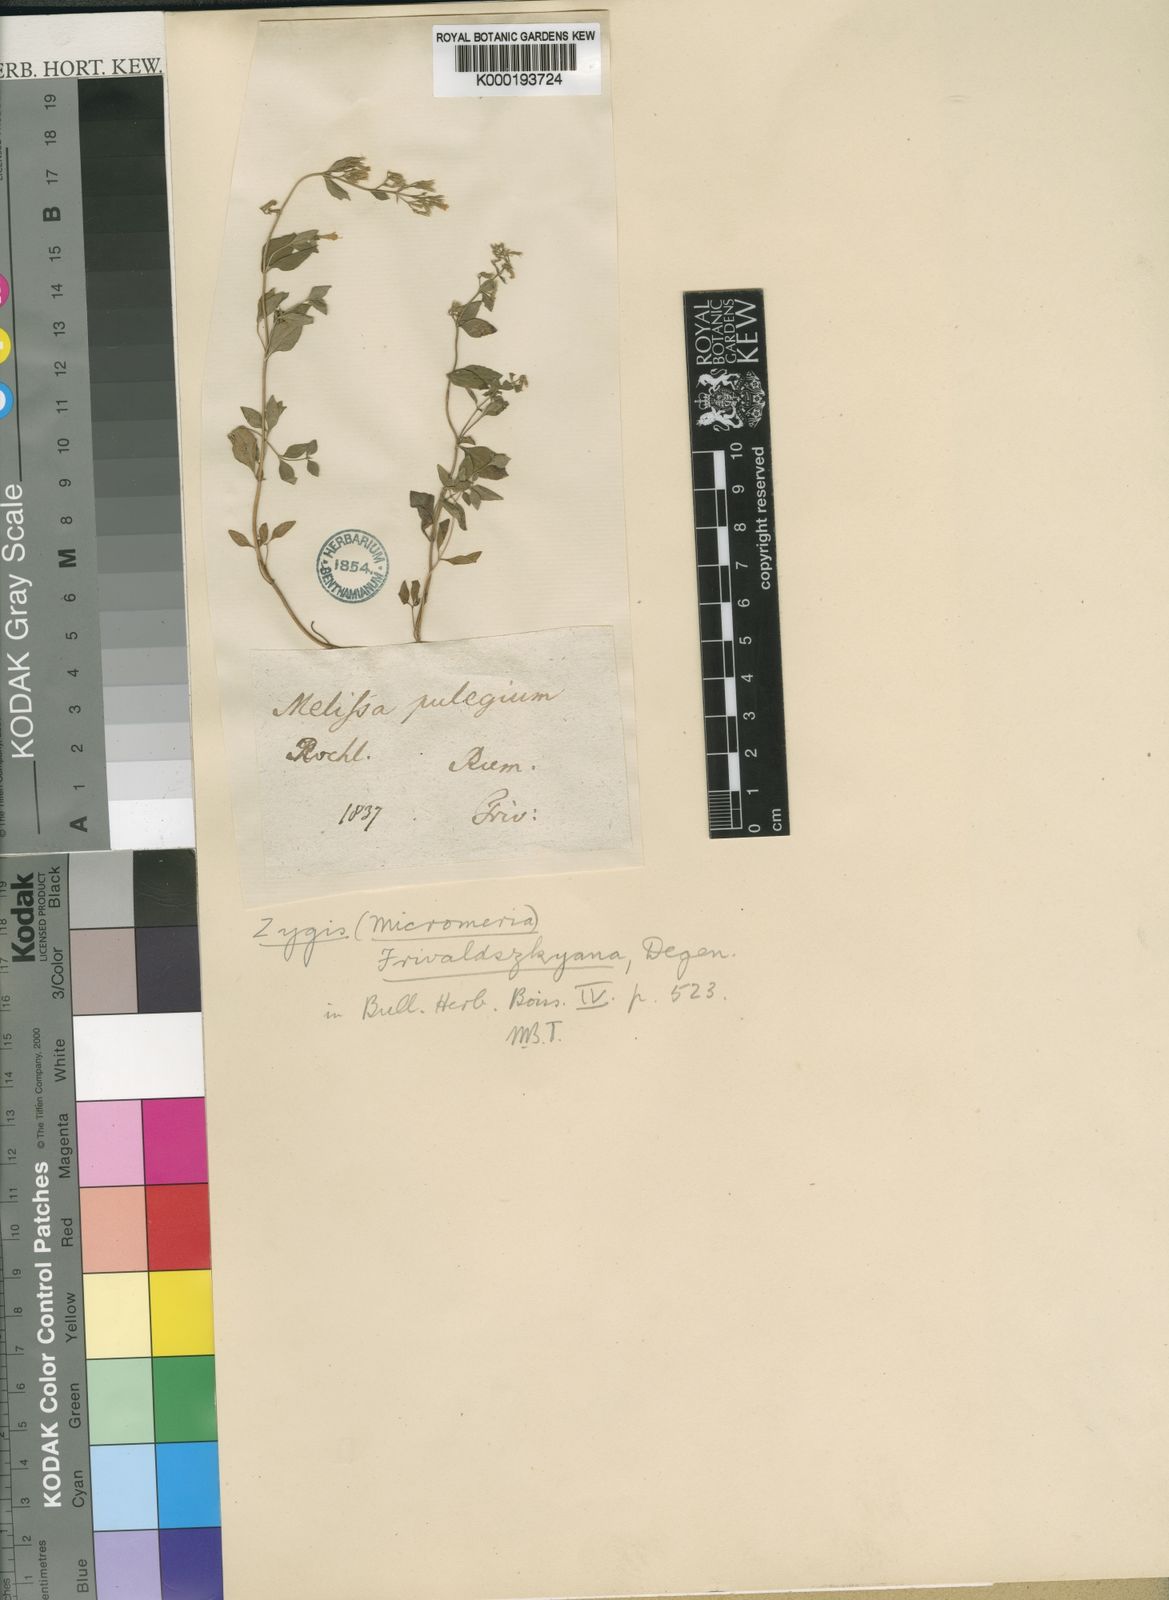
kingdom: Plantae
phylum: Tracheophyta
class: Magnoliopsida
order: Lamiales
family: Lamiaceae
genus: Clinopodium
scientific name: Clinopodium pulegium
